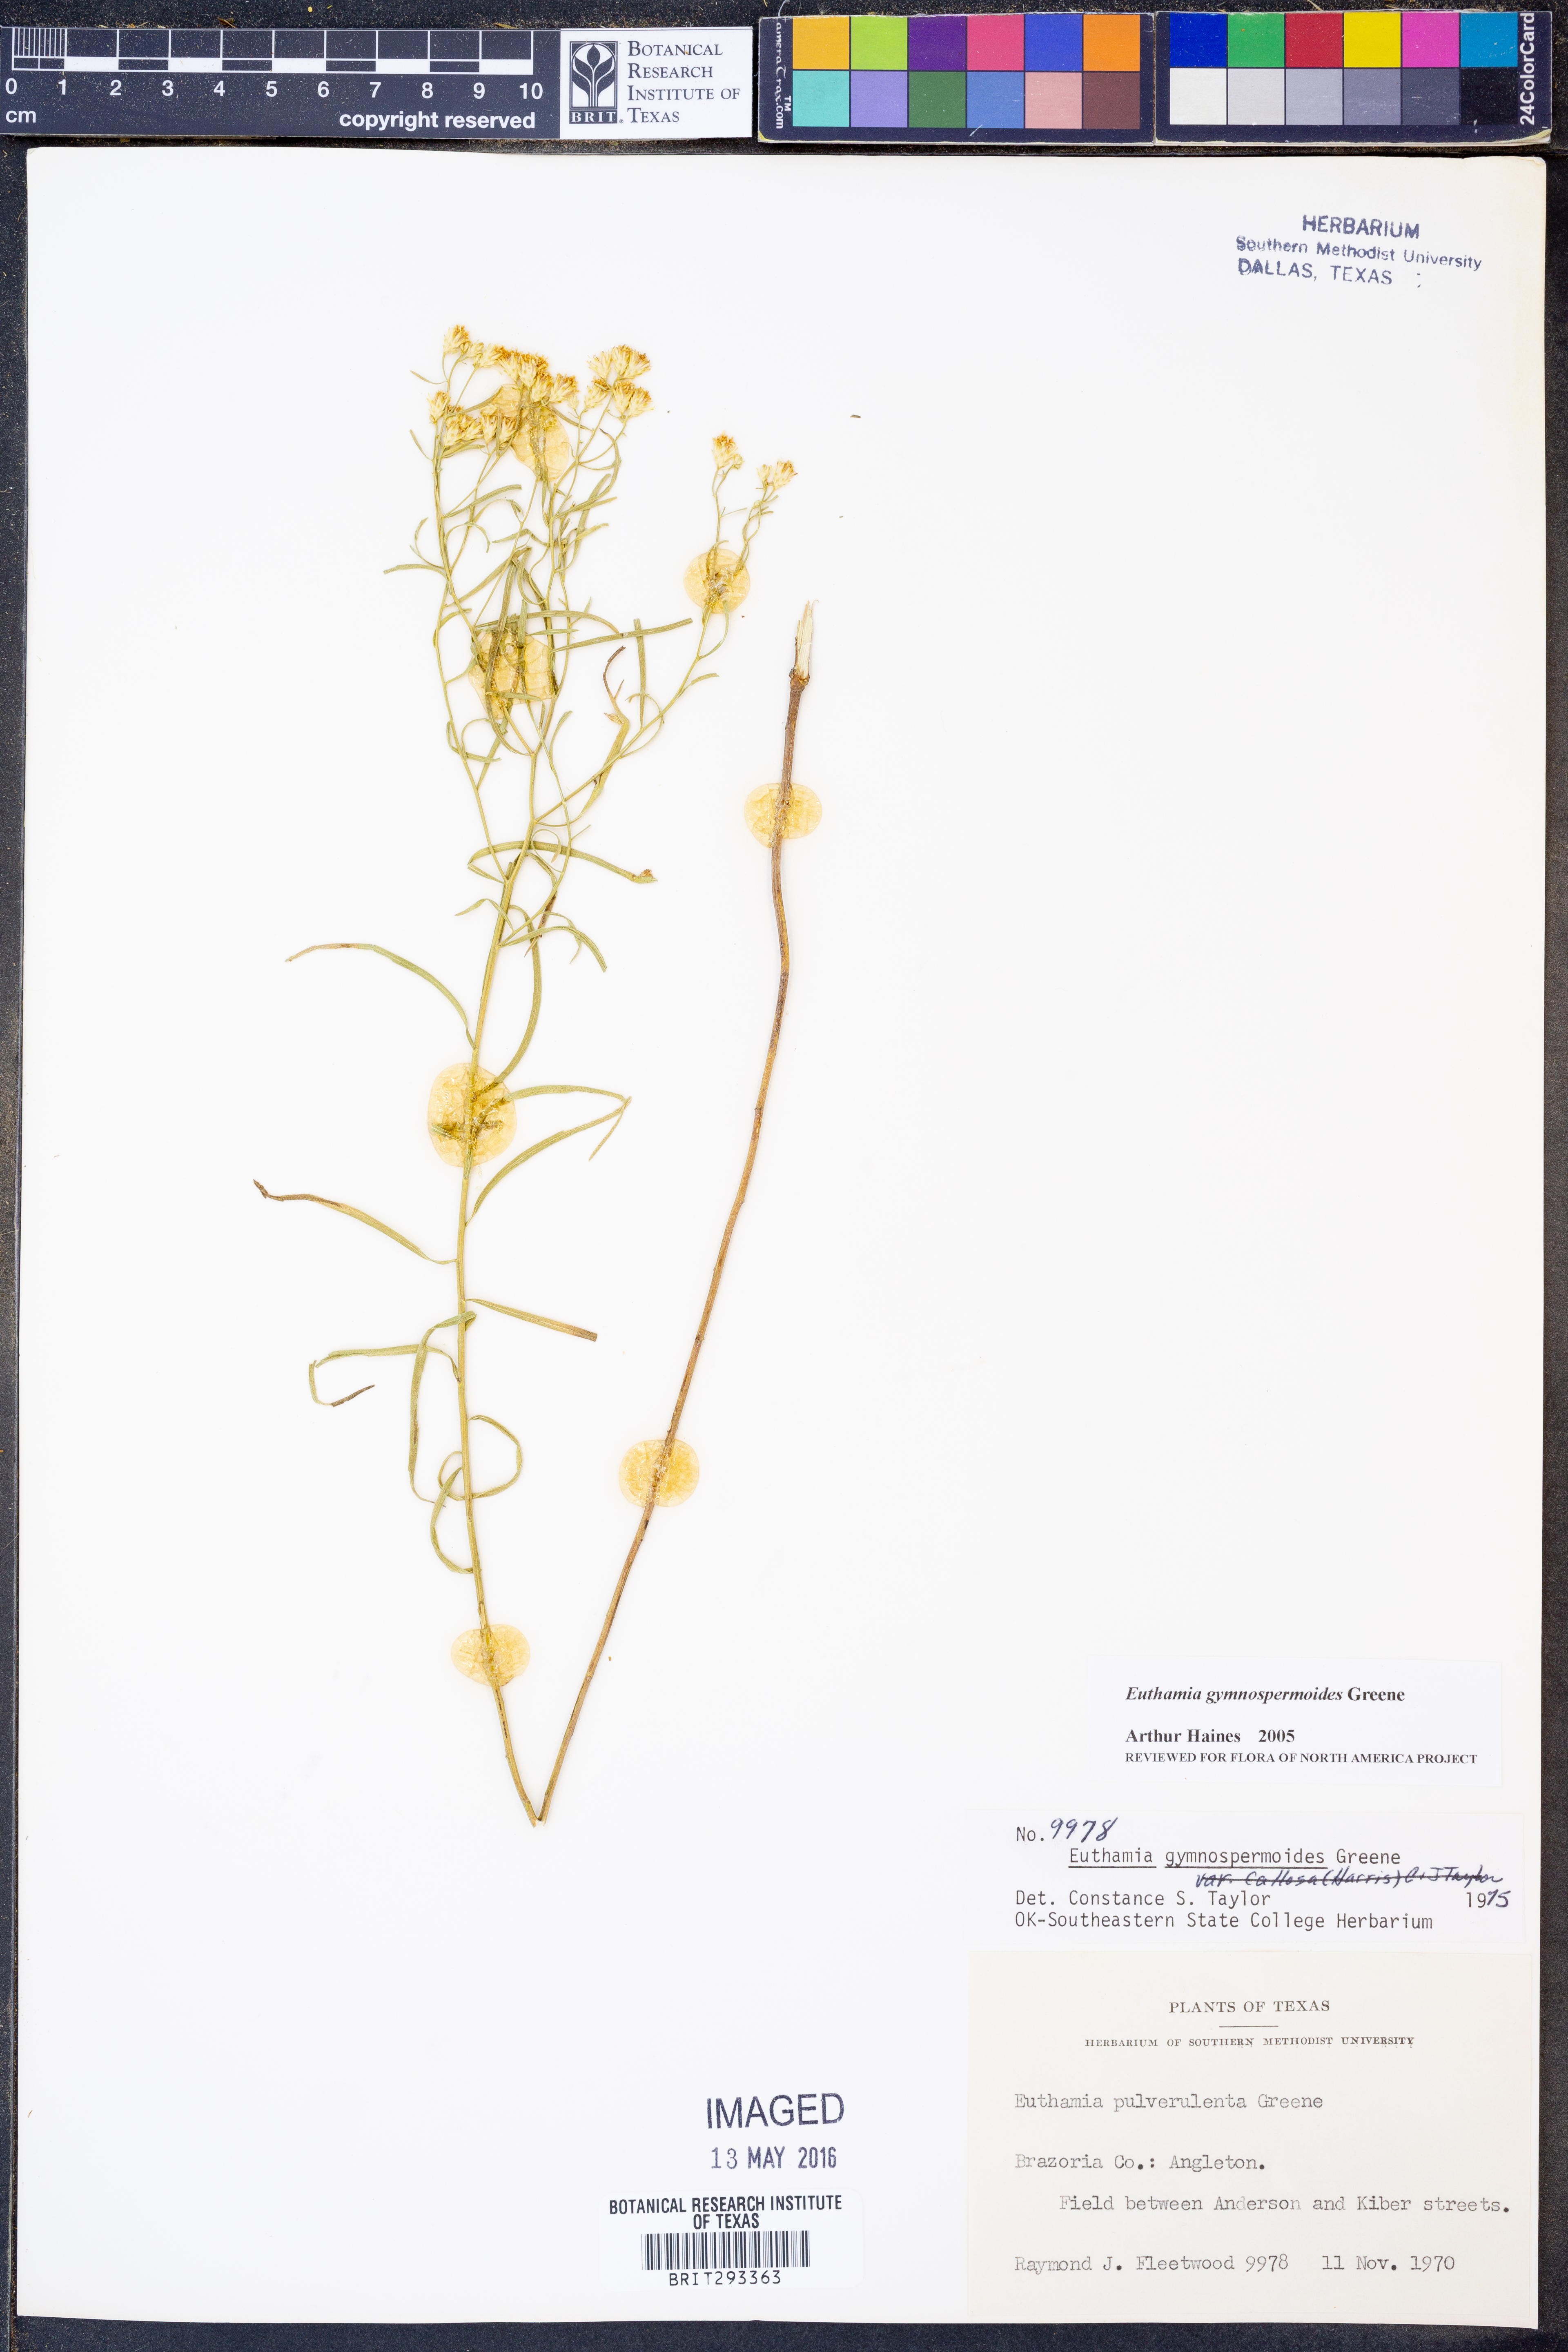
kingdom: Plantae
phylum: Tracheophyta
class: Magnoliopsida
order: Asterales
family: Asteraceae
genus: Euthamia
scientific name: Euthamia gymnospermoides
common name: Great plains goldentop
